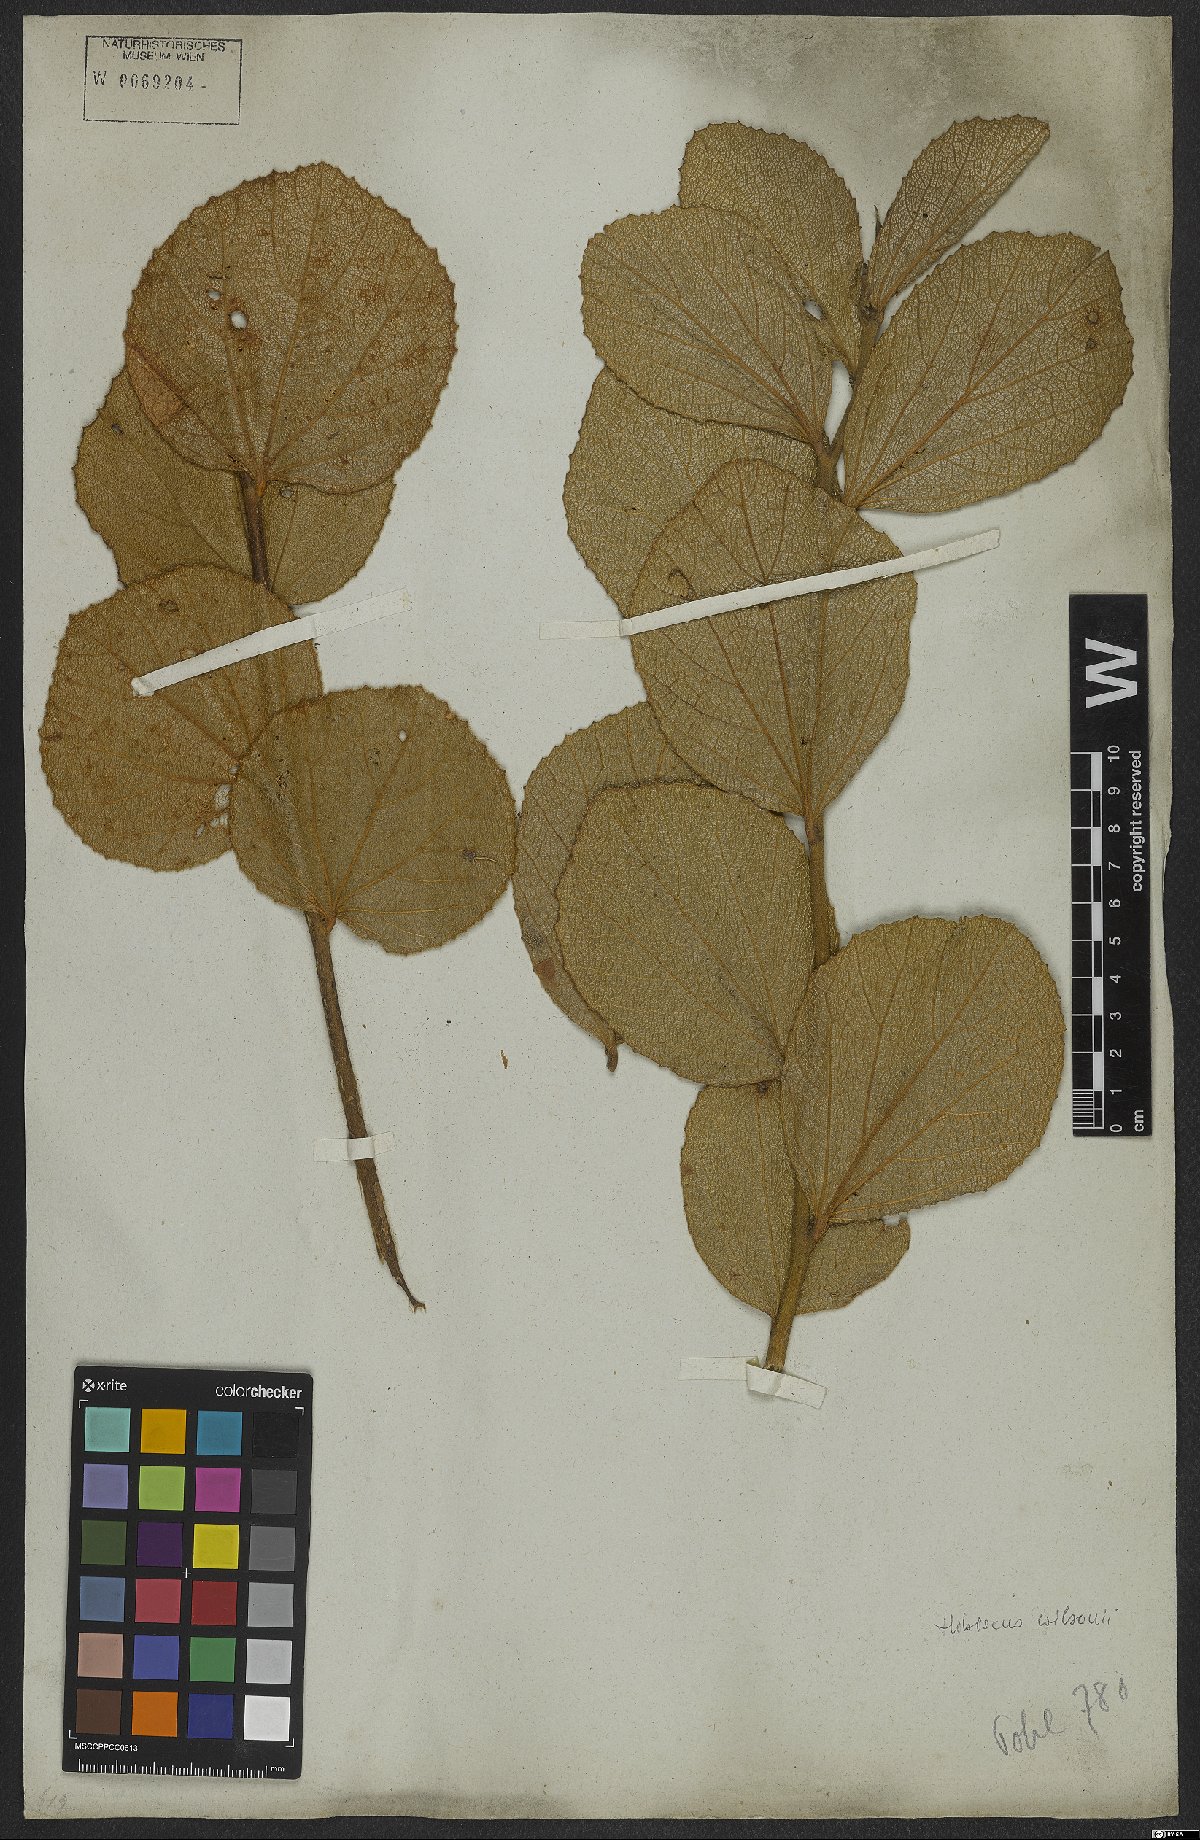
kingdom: Plantae
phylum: Tracheophyta
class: Magnoliopsida
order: Malvales
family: Malvaceae
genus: Hibiscus
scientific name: Hibiscus wilsonii
